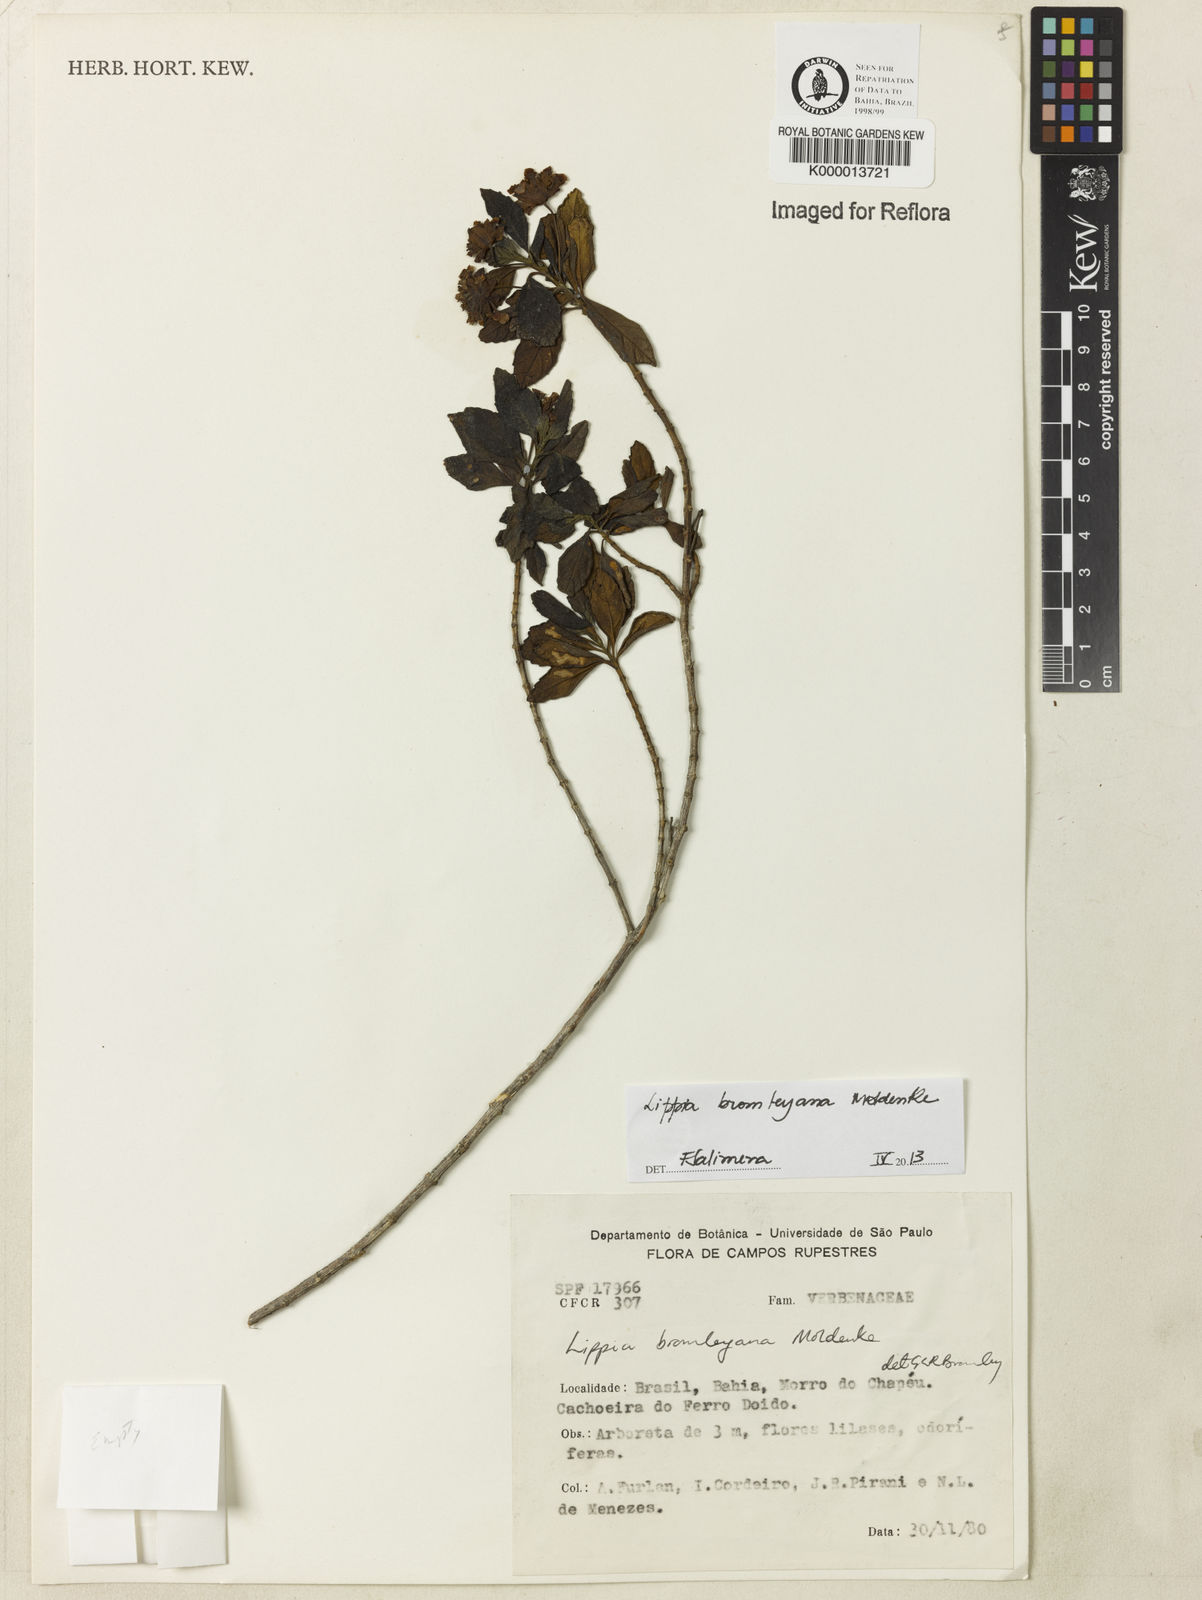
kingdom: Plantae
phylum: Tracheophyta
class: Magnoliopsida
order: Lamiales
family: Verbenaceae
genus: Lippia
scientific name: Lippia bromleyana
